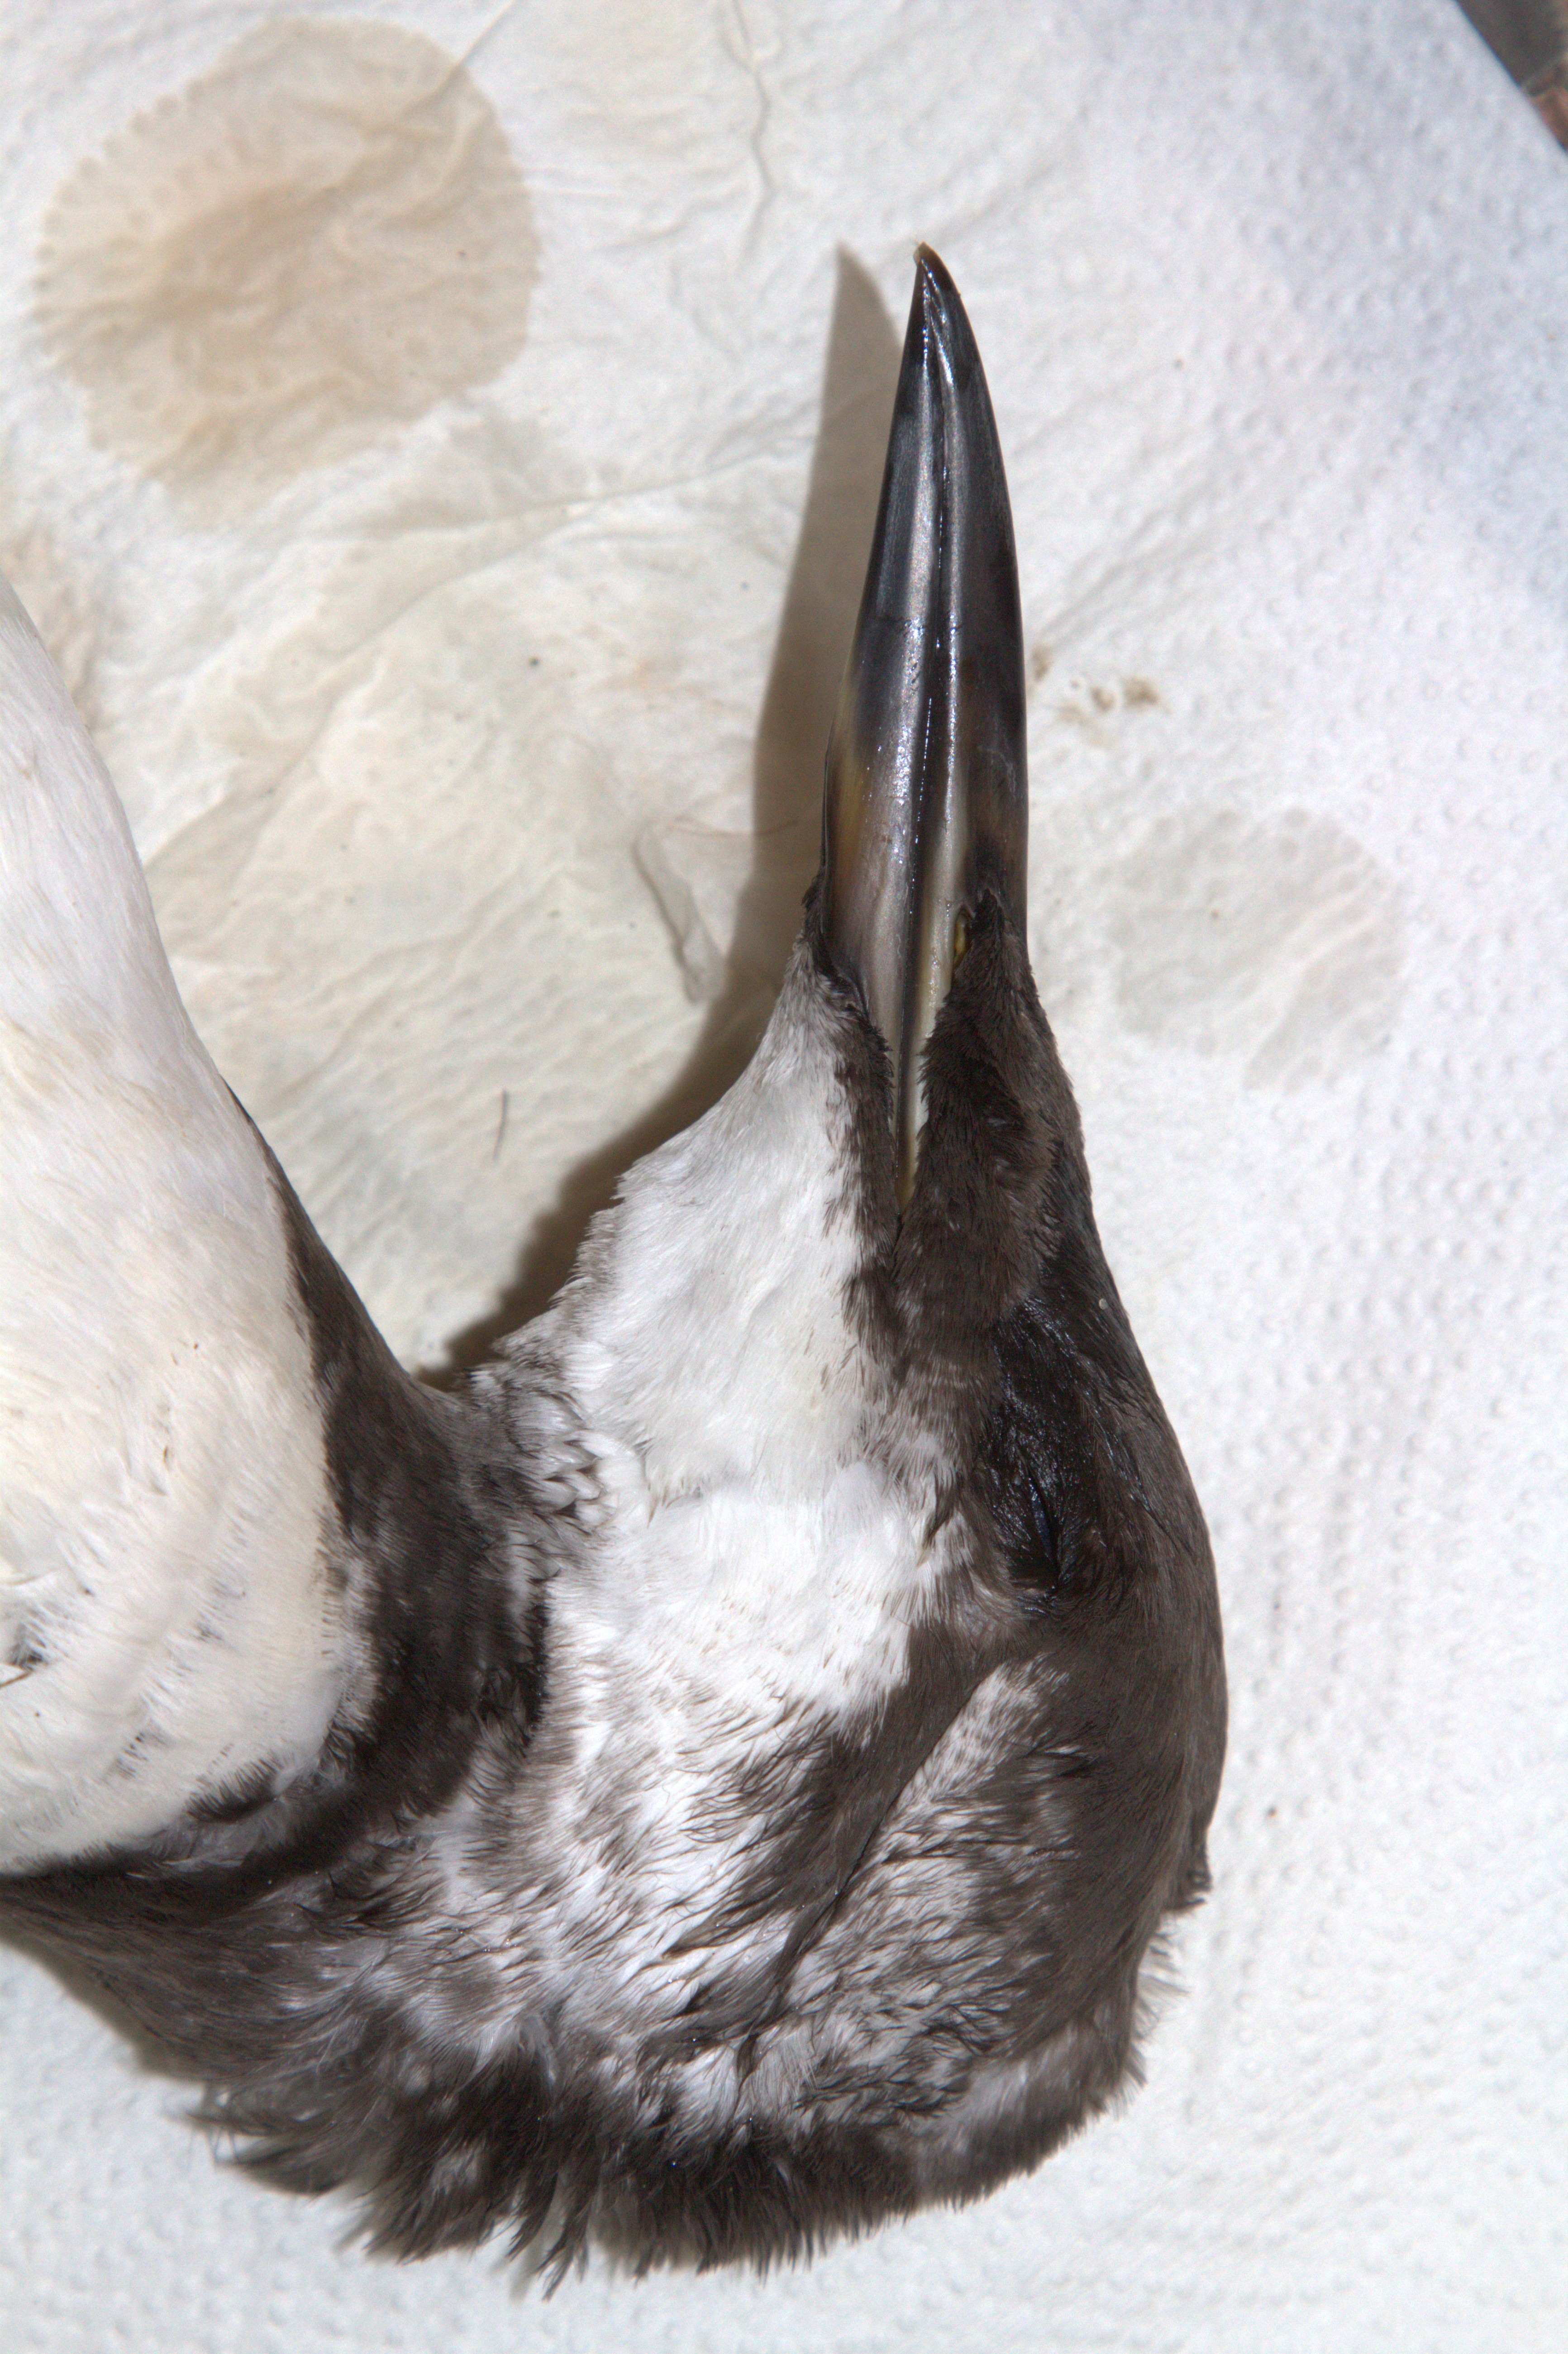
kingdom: Animalia
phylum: Chordata
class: Aves
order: Charadriiformes
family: Alcidae
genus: Uria
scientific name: Uria aalge
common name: Common murre
